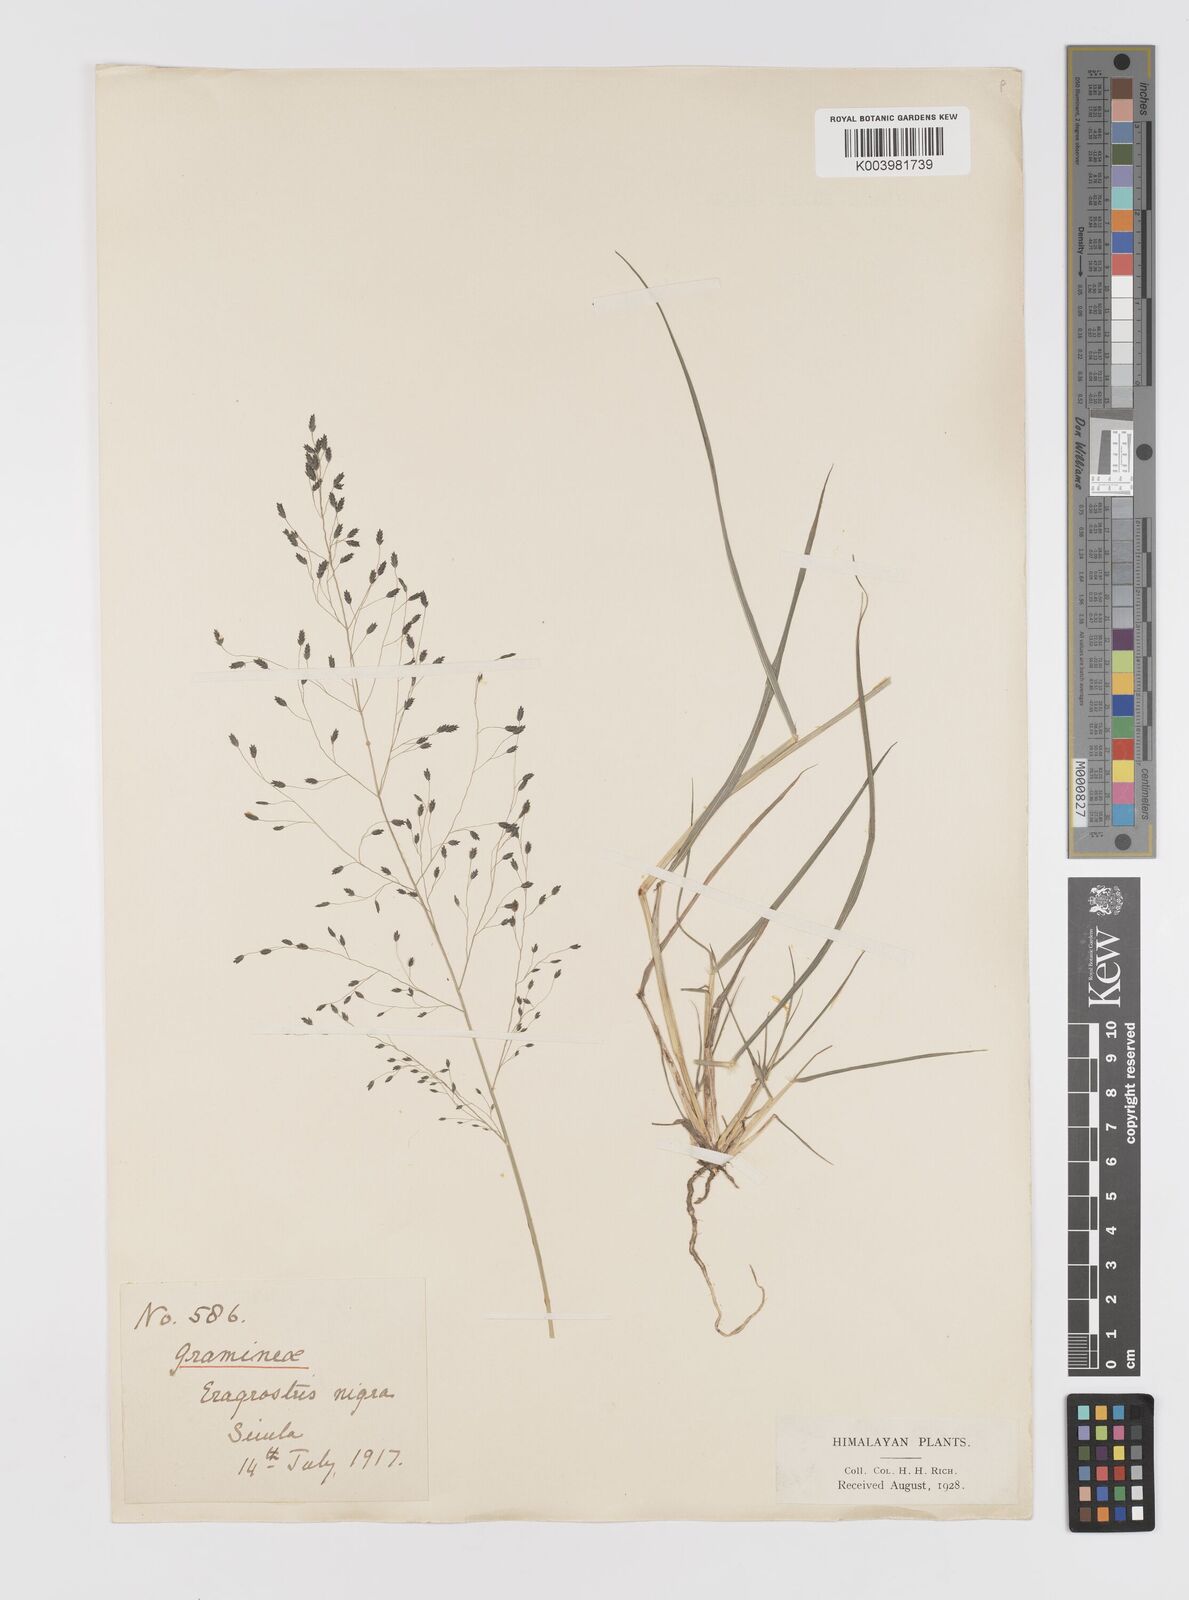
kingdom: Plantae
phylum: Tracheophyta
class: Liliopsida
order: Poales
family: Poaceae
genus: Eragrostis
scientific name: Eragrostis nigra
